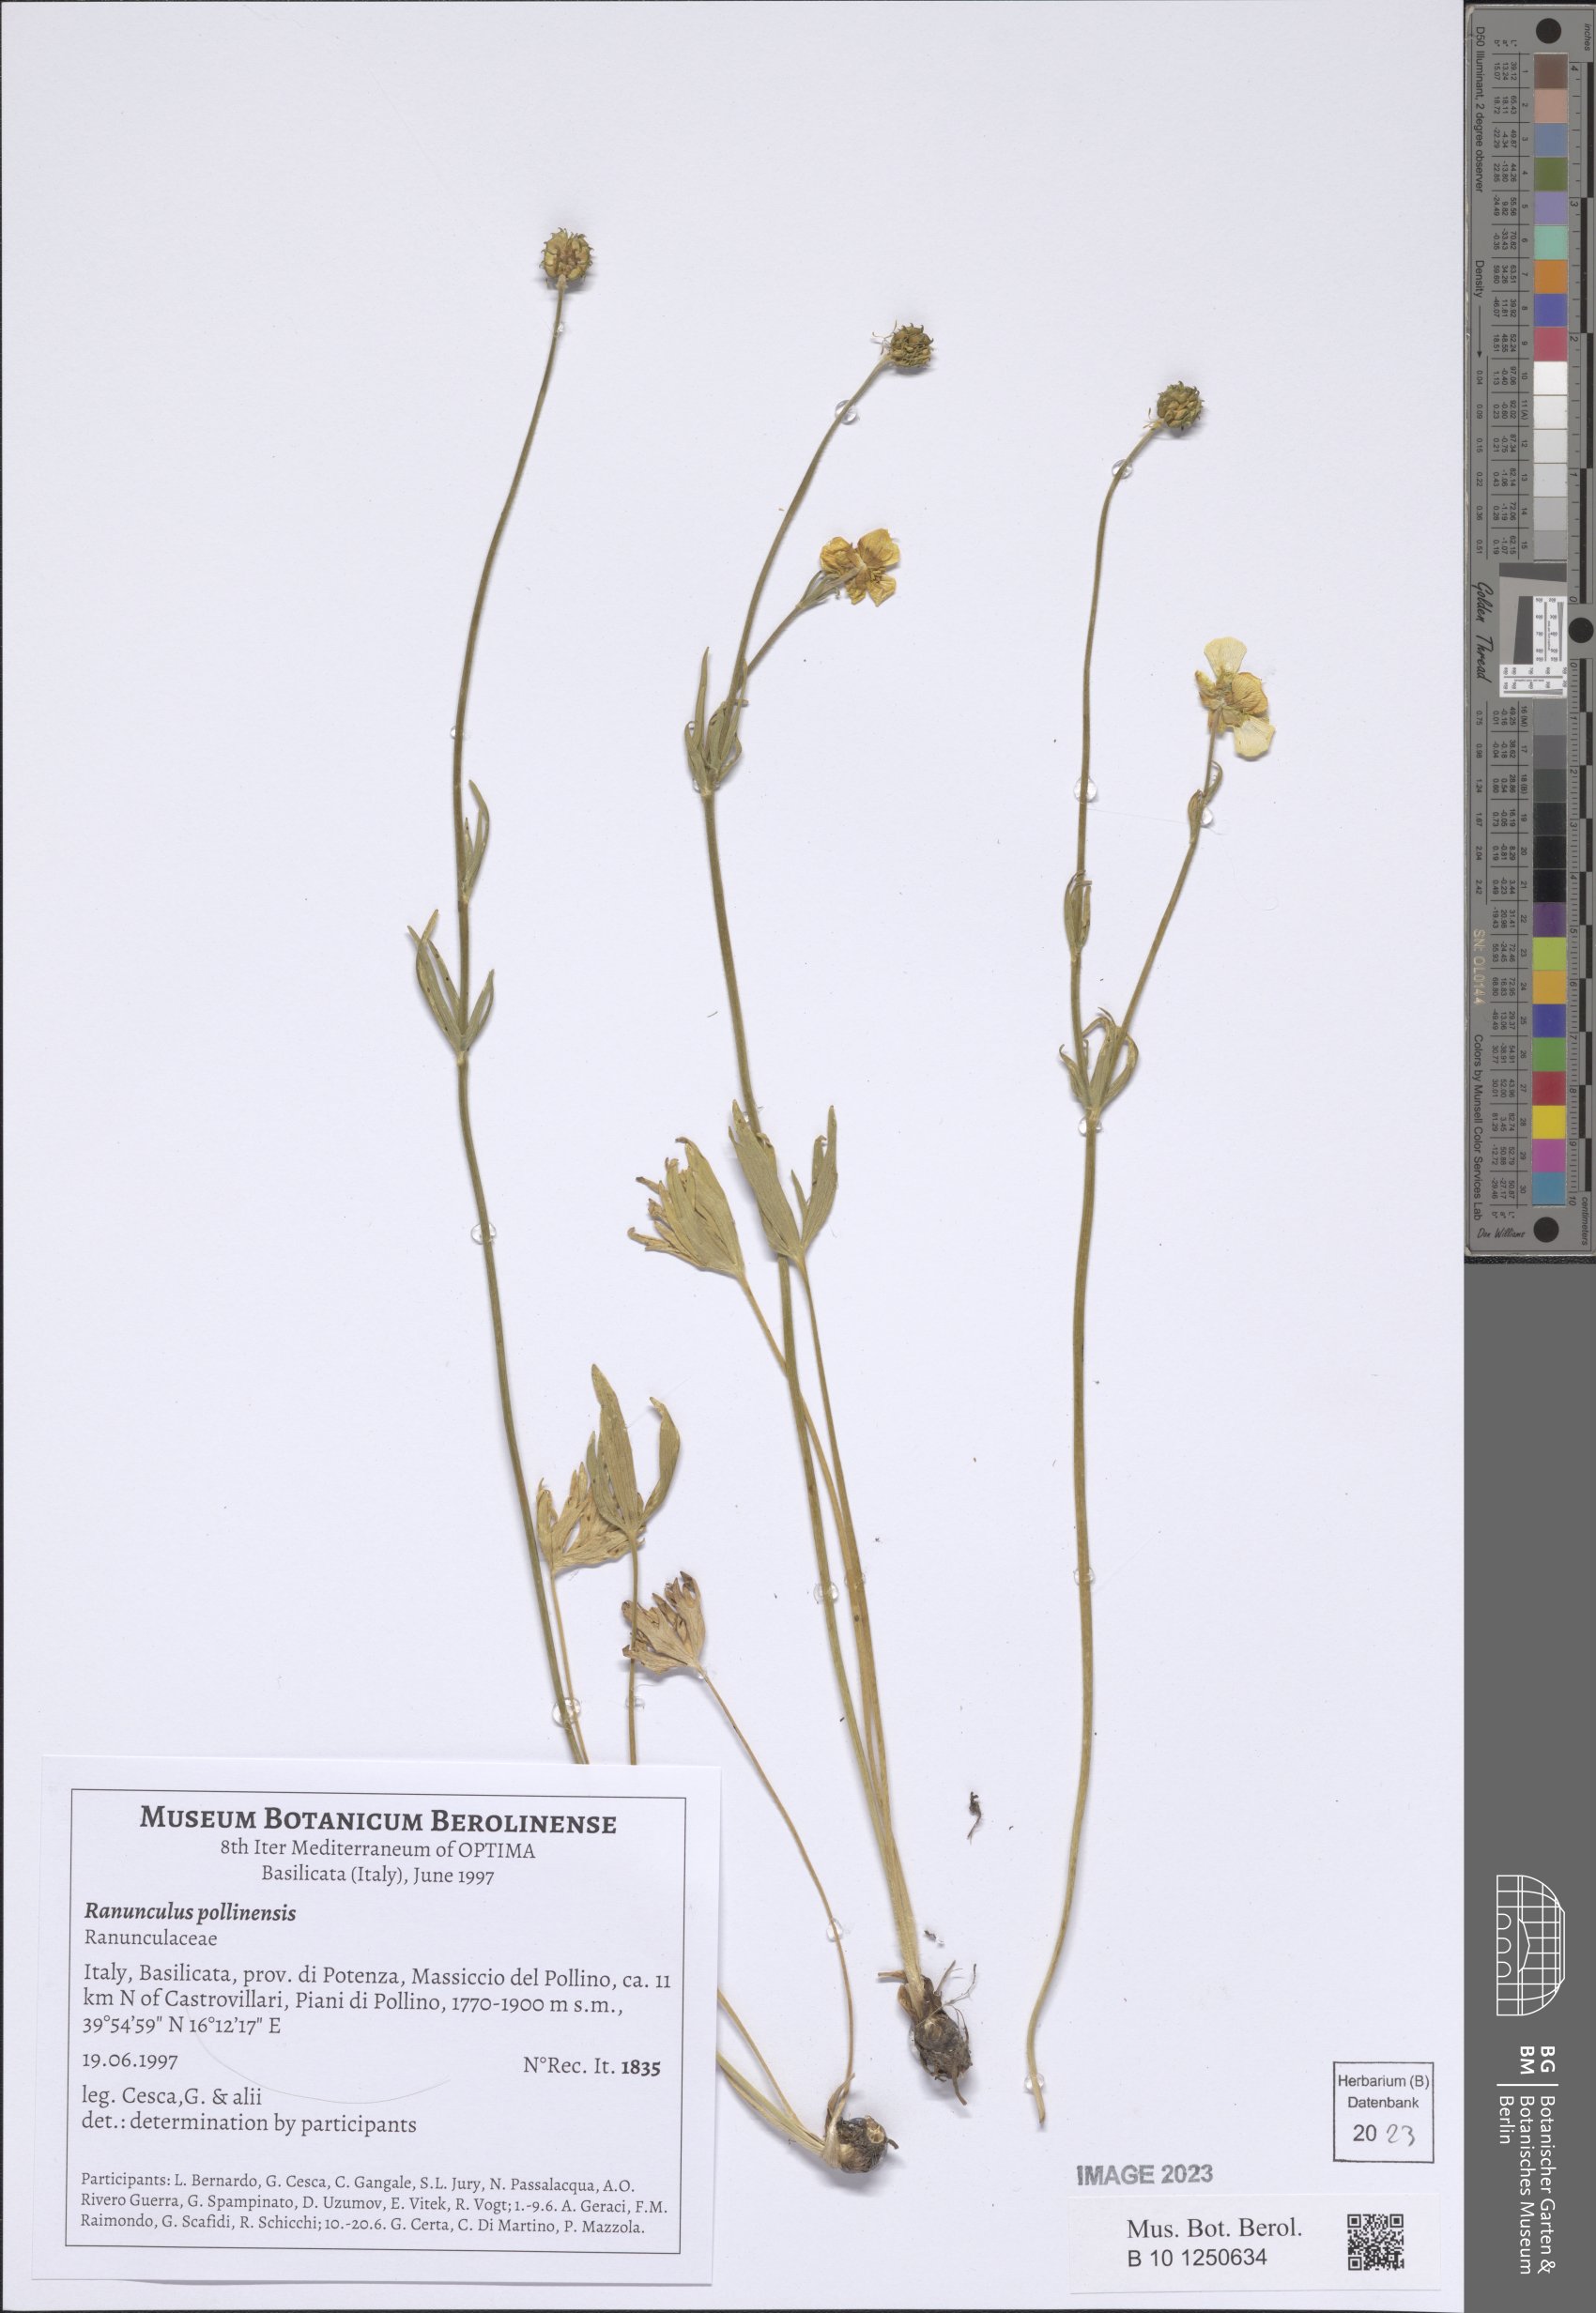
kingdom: Plantae
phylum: Tracheophyta
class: Magnoliopsida
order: Ranunculales
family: Ranunculaceae
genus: Ranunculus
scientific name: Ranunculus pollinensis
